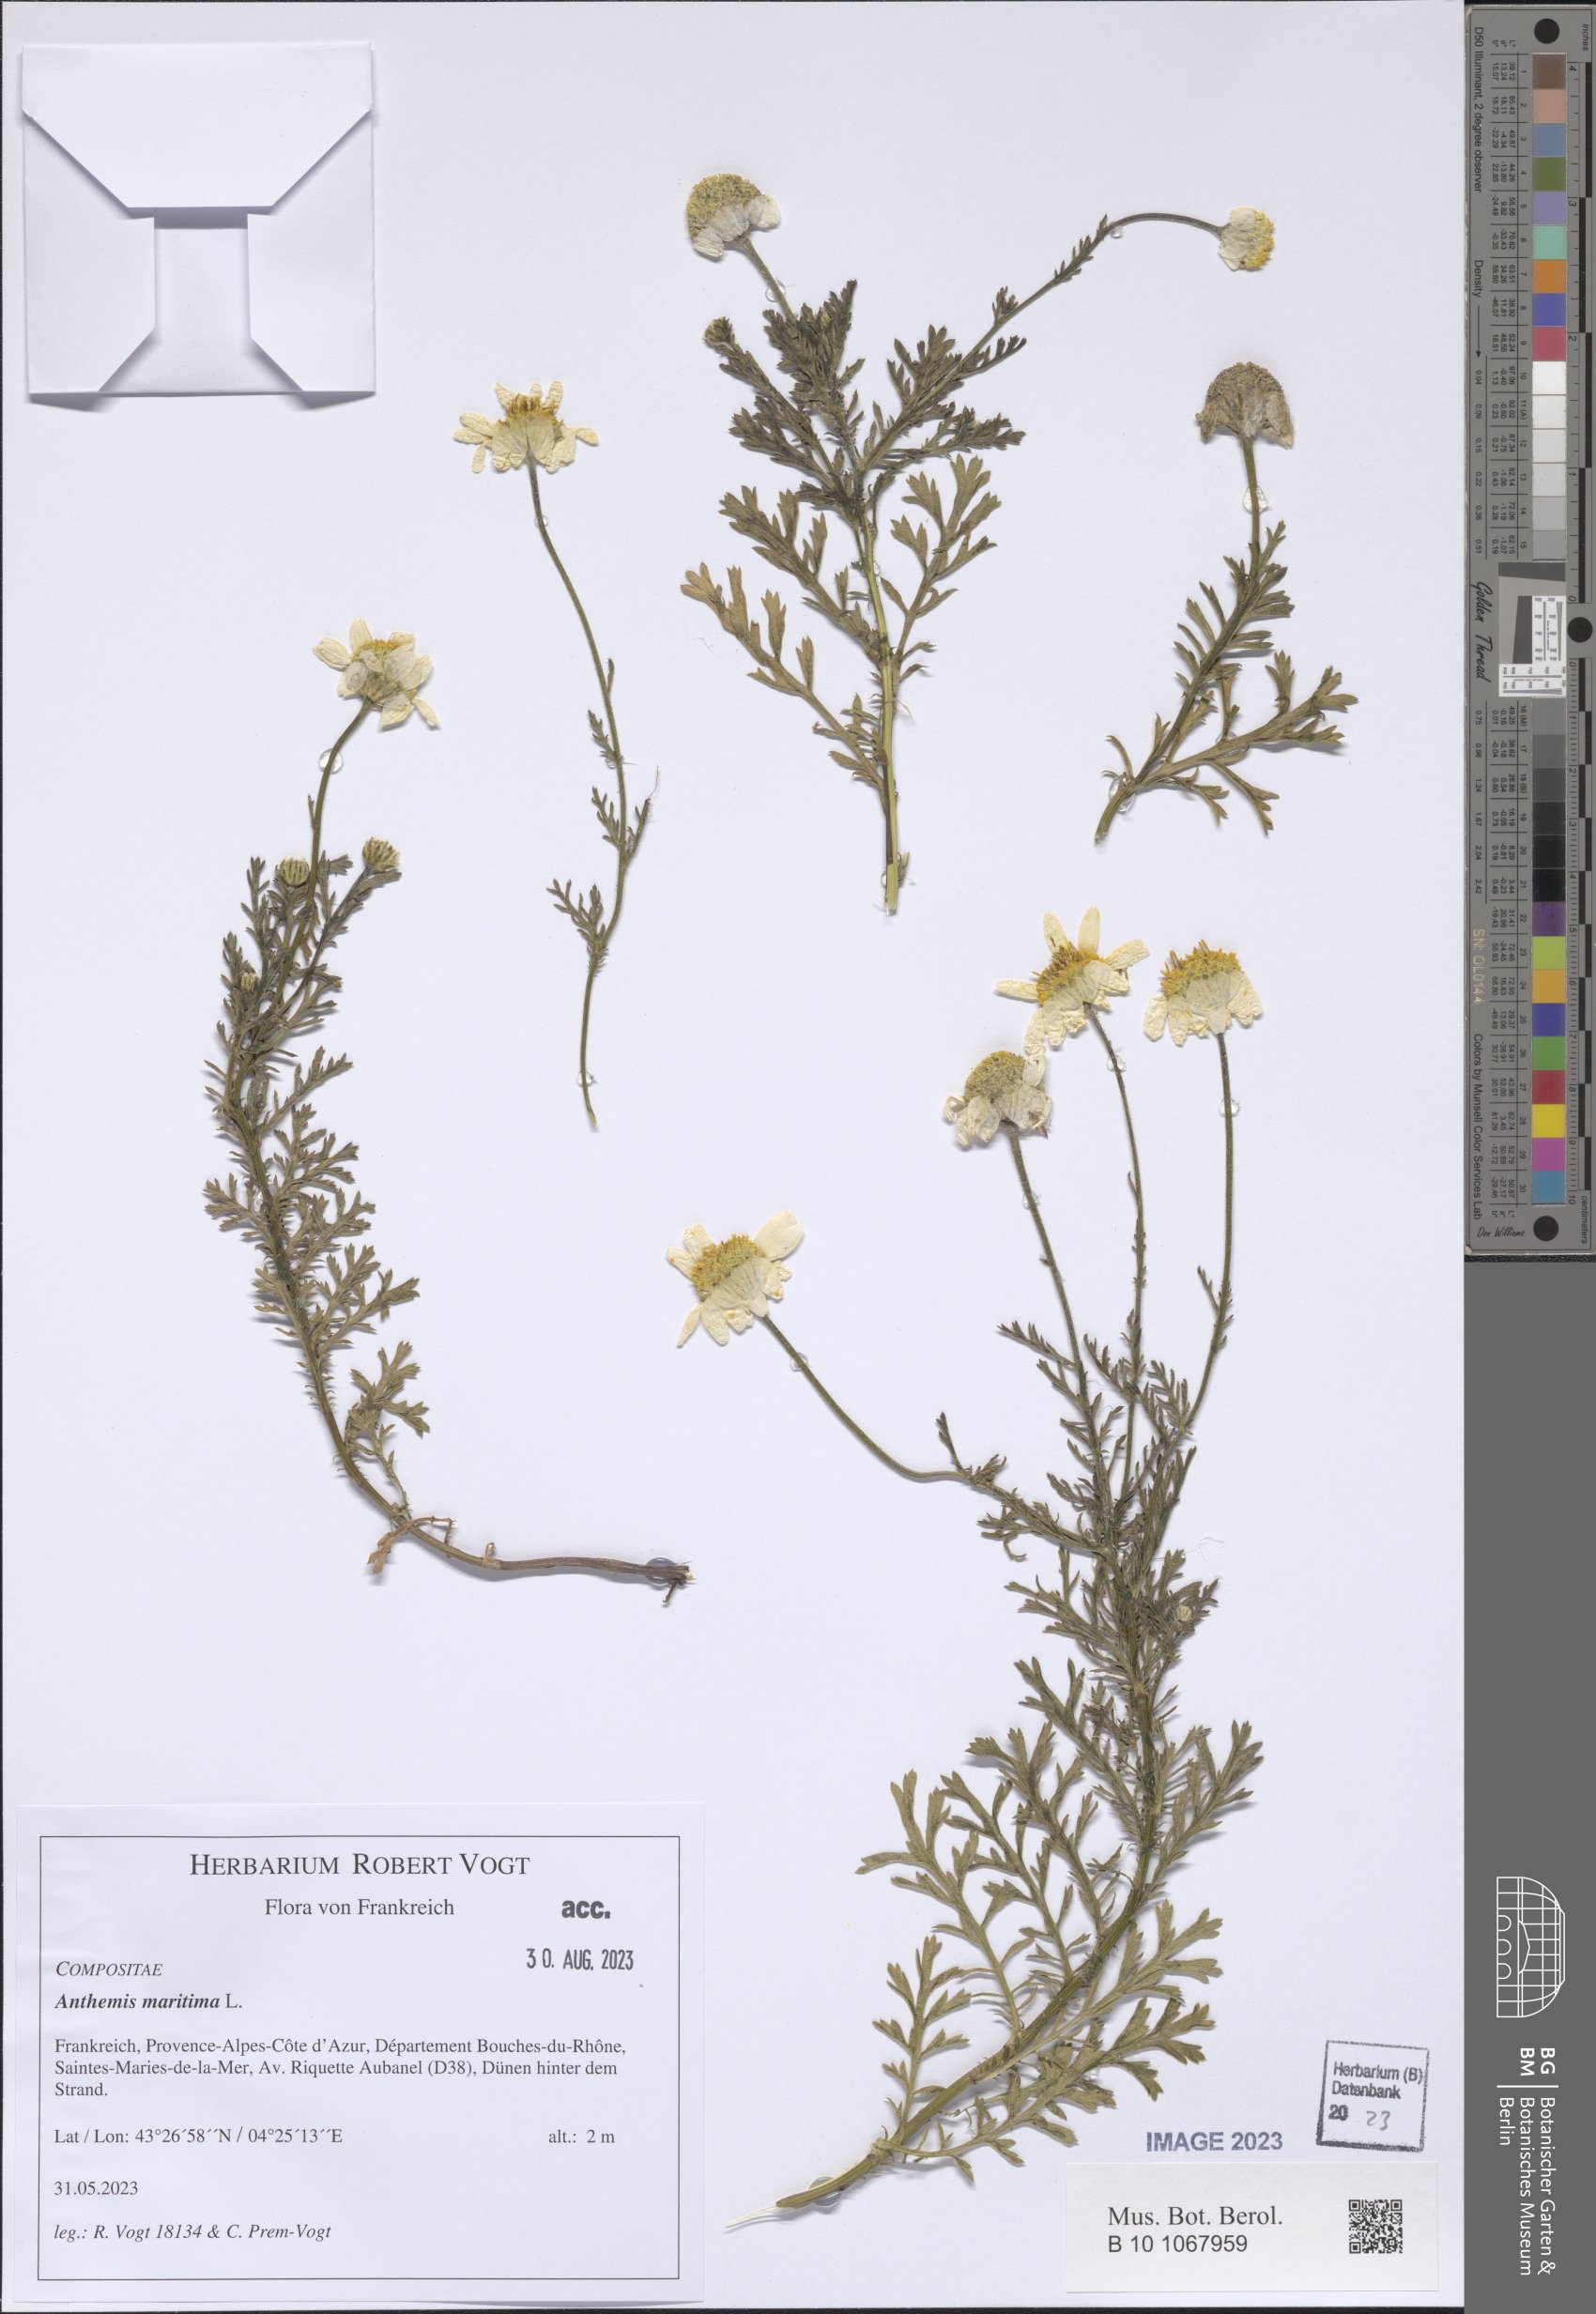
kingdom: Plantae
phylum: Tracheophyta
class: Magnoliopsida
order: Asterales
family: Asteraceae
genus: Anthemis
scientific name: Anthemis maritima
